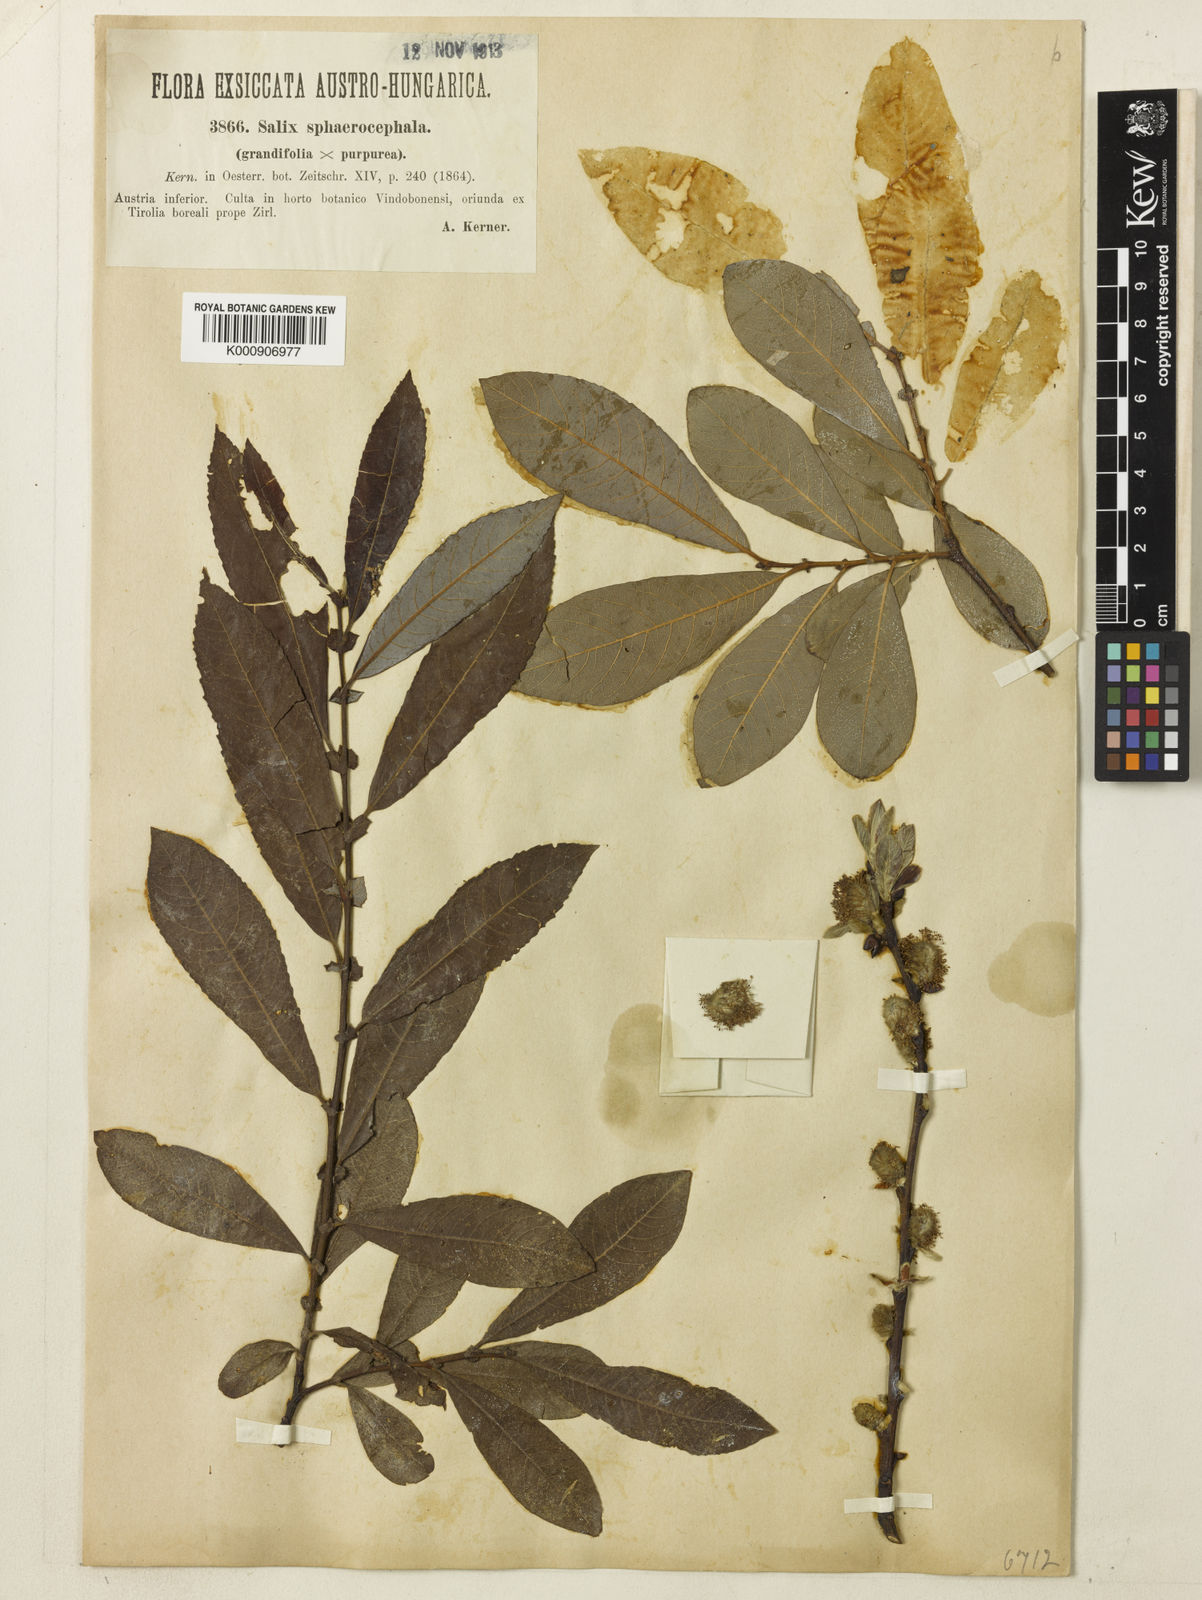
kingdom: Plantae
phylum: Tracheophyta
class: Magnoliopsida
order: Malpighiales
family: Salicaceae
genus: Salix
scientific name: Salix appendiculata
